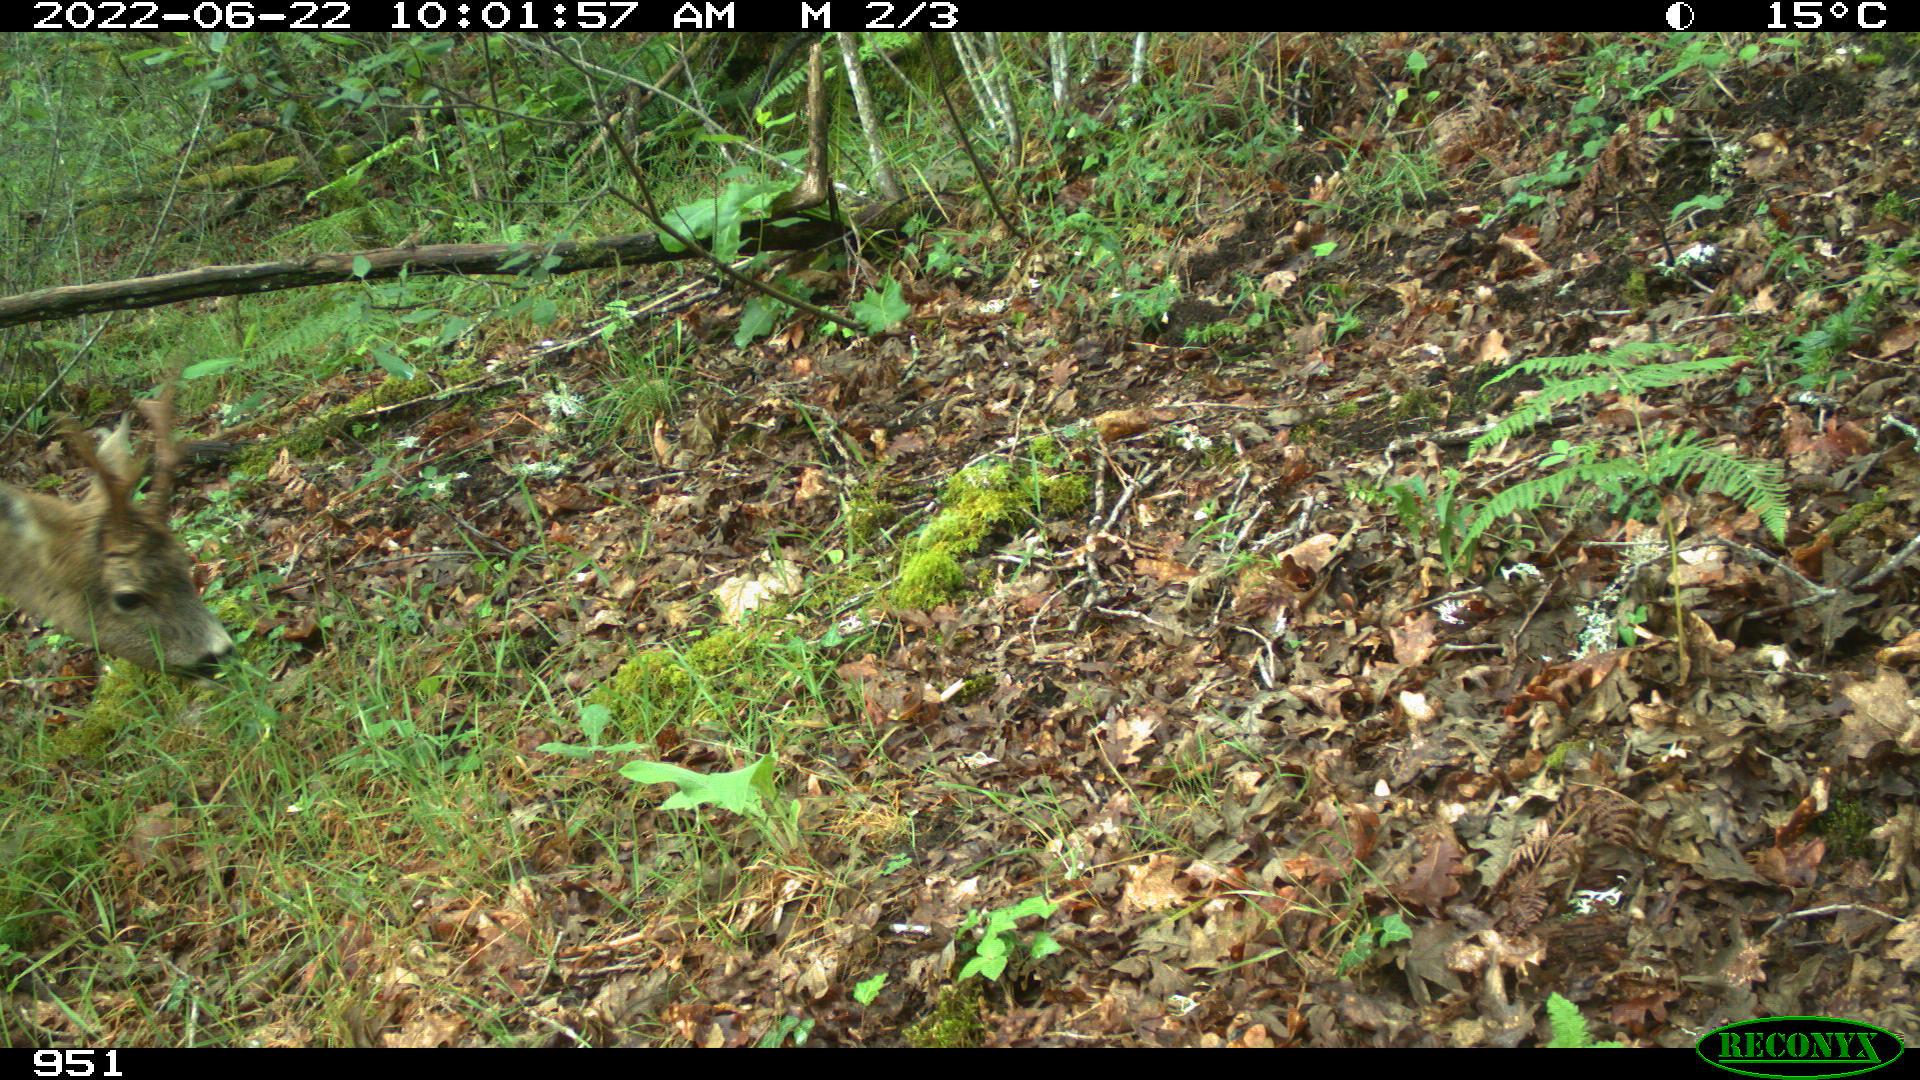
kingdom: Animalia
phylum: Chordata
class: Mammalia
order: Artiodactyla
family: Cervidae
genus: Capreolus
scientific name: Capreolus capreolus
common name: Western roe deer
